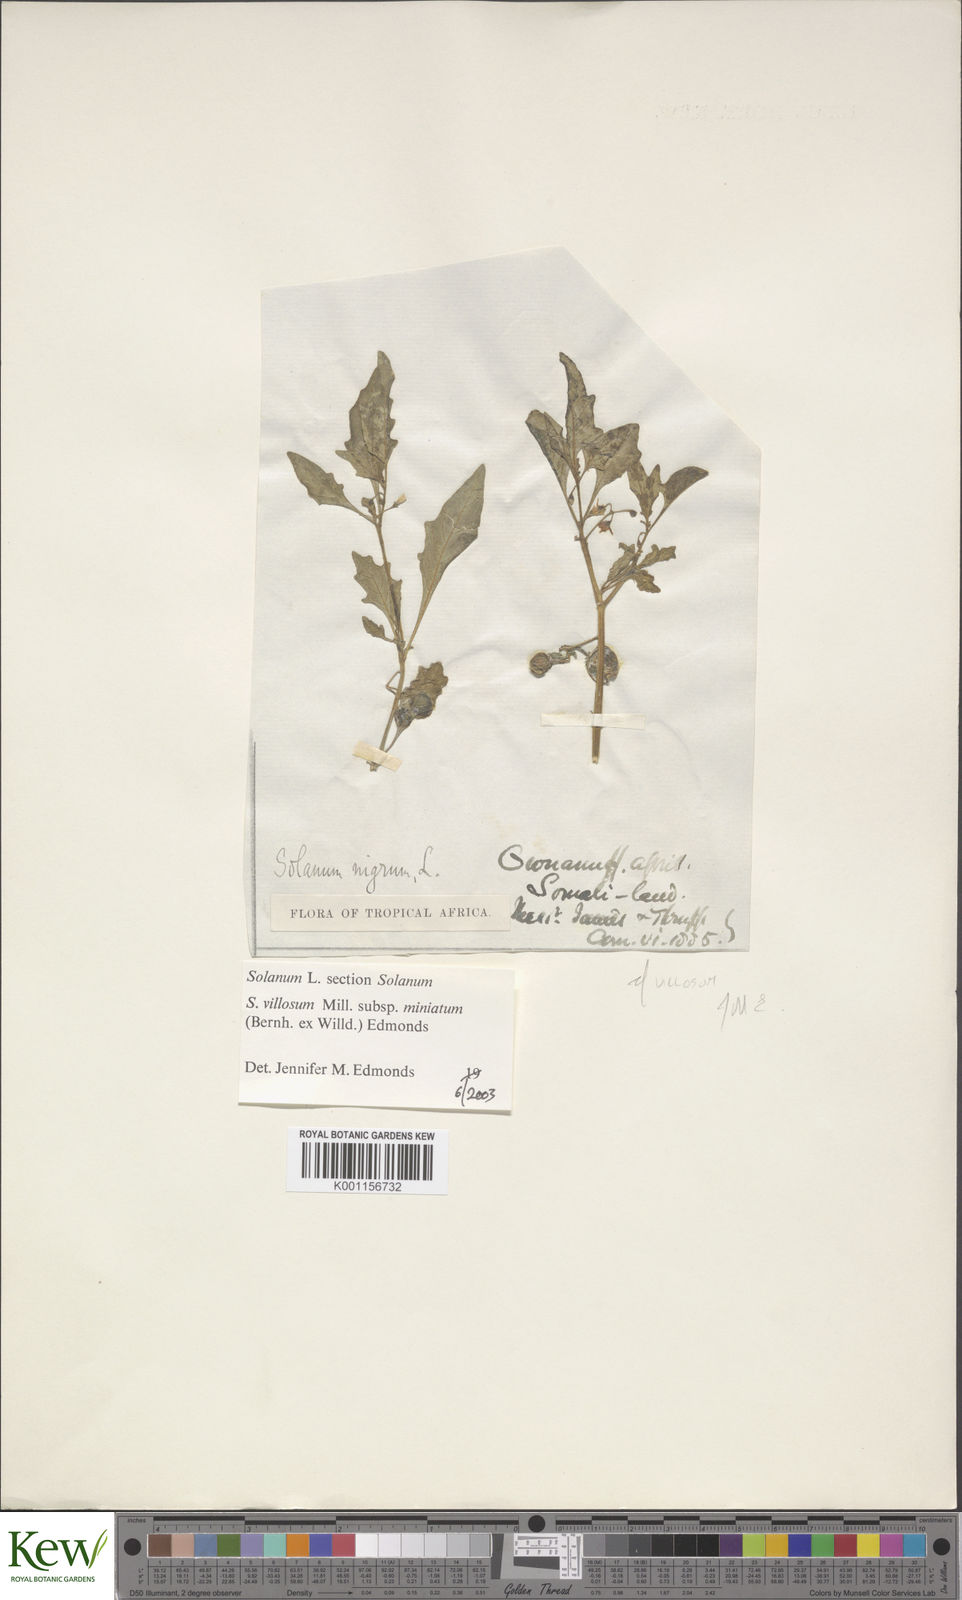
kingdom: Plantae
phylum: Tracheophyta
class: Magnoliopsida
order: Solanales
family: Solanaceae
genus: Solanum
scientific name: Solanum villosum
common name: Red nightshade
